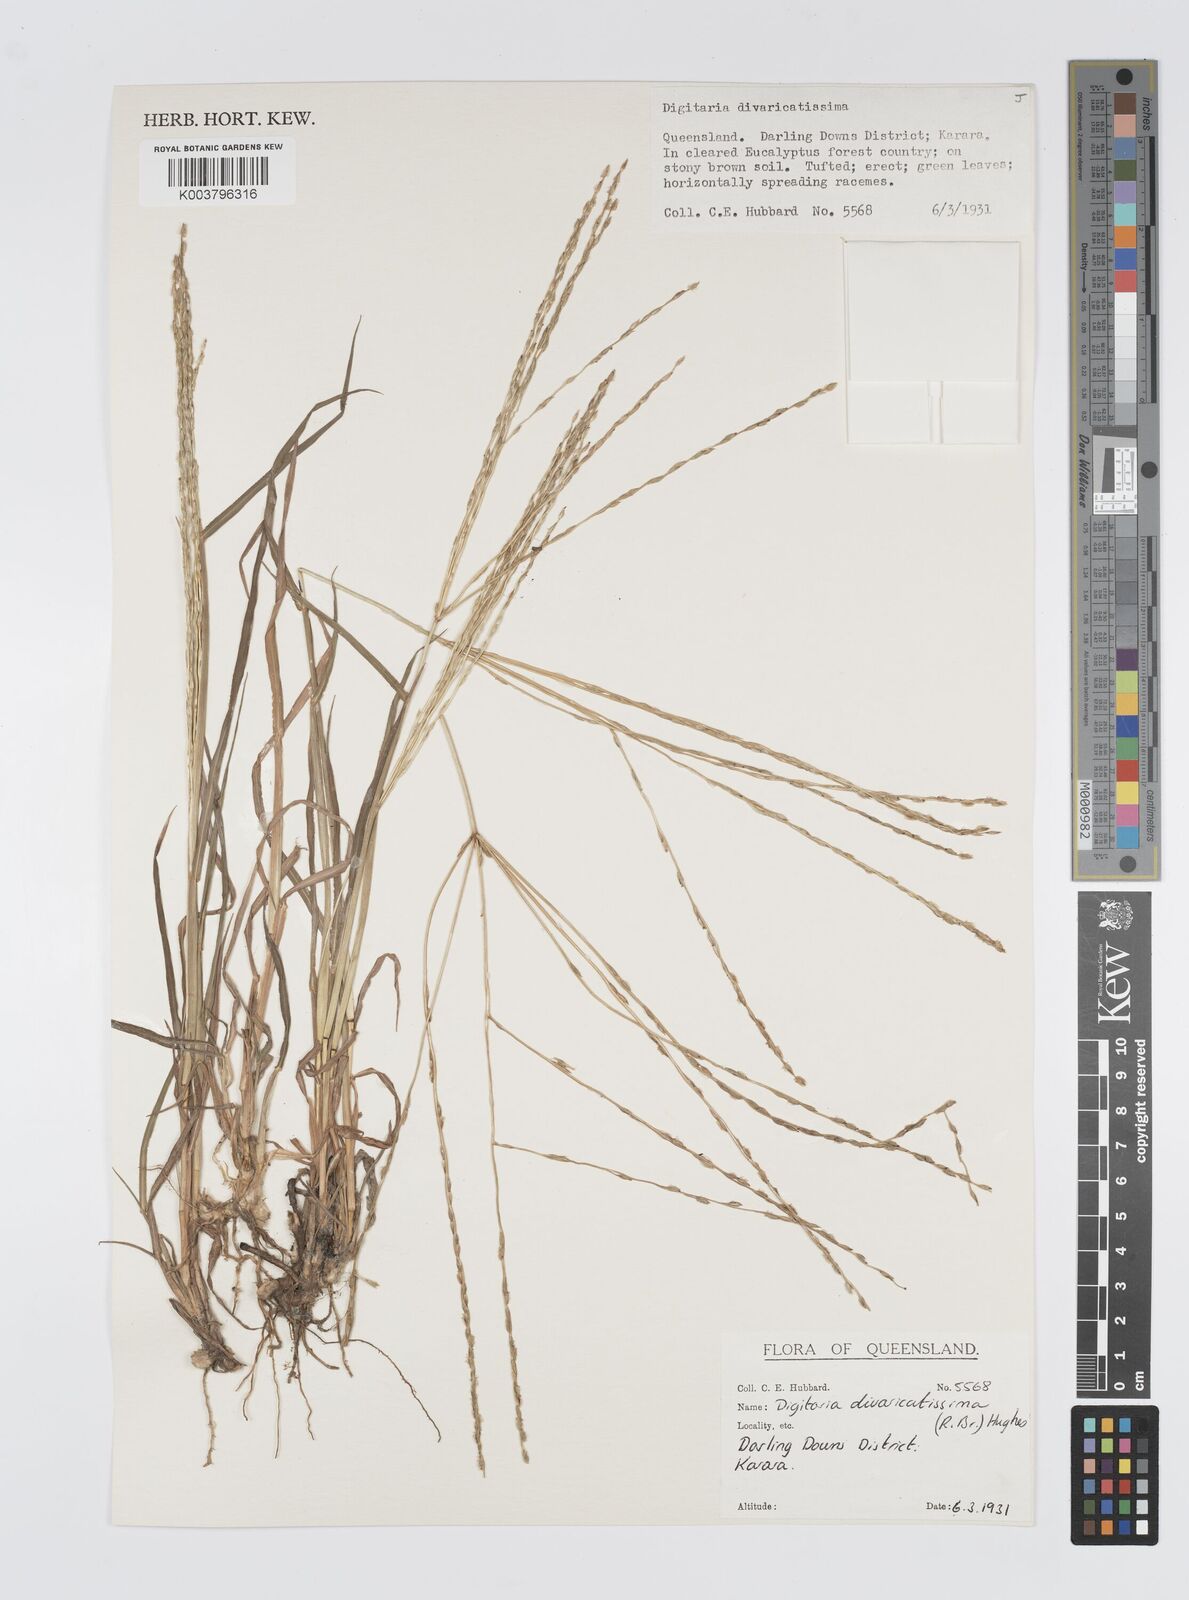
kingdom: Plantae
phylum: Tracheophyta
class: Liliopsida
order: Poales
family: Poaceae
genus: Digitaria
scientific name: Digitaria divaricatissima
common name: Crabgrass
